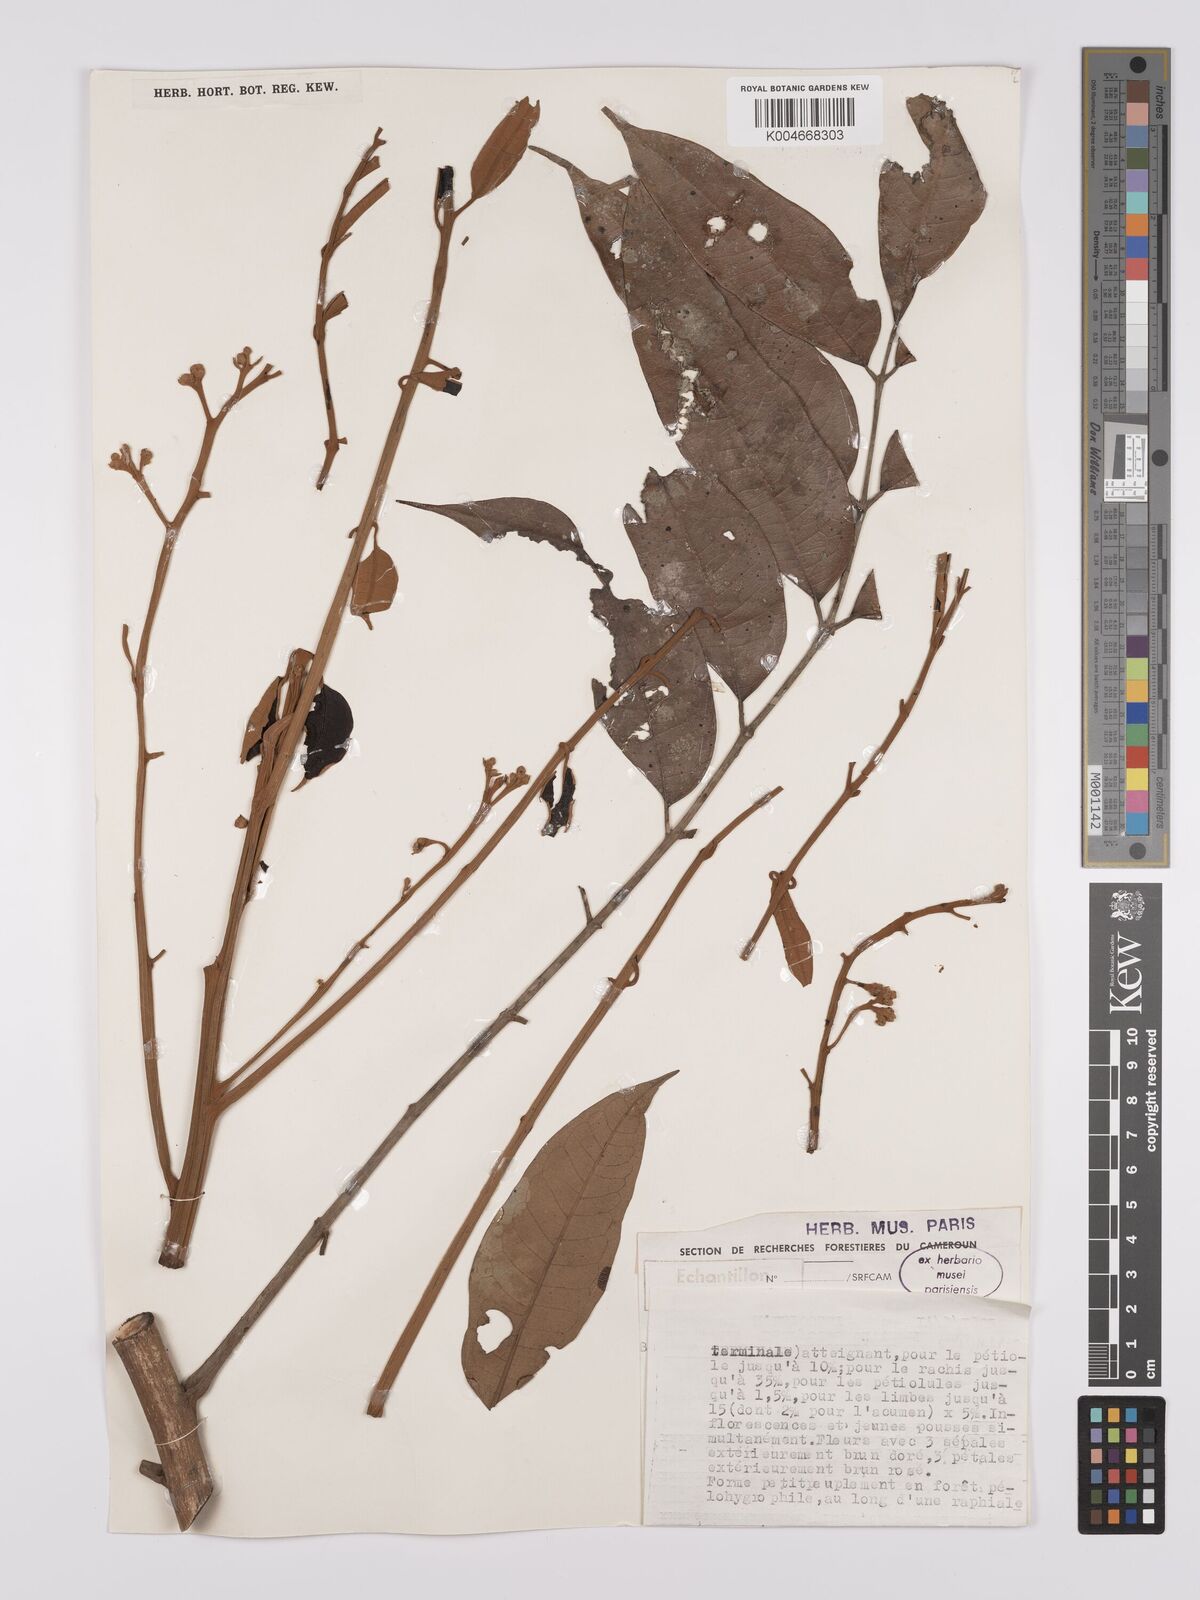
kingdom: Plantae
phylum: Tracheophyta
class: Magnoliopsida
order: Sapindales
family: Burseraceae
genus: Pachylobus
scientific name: Pachylobus buettneri
